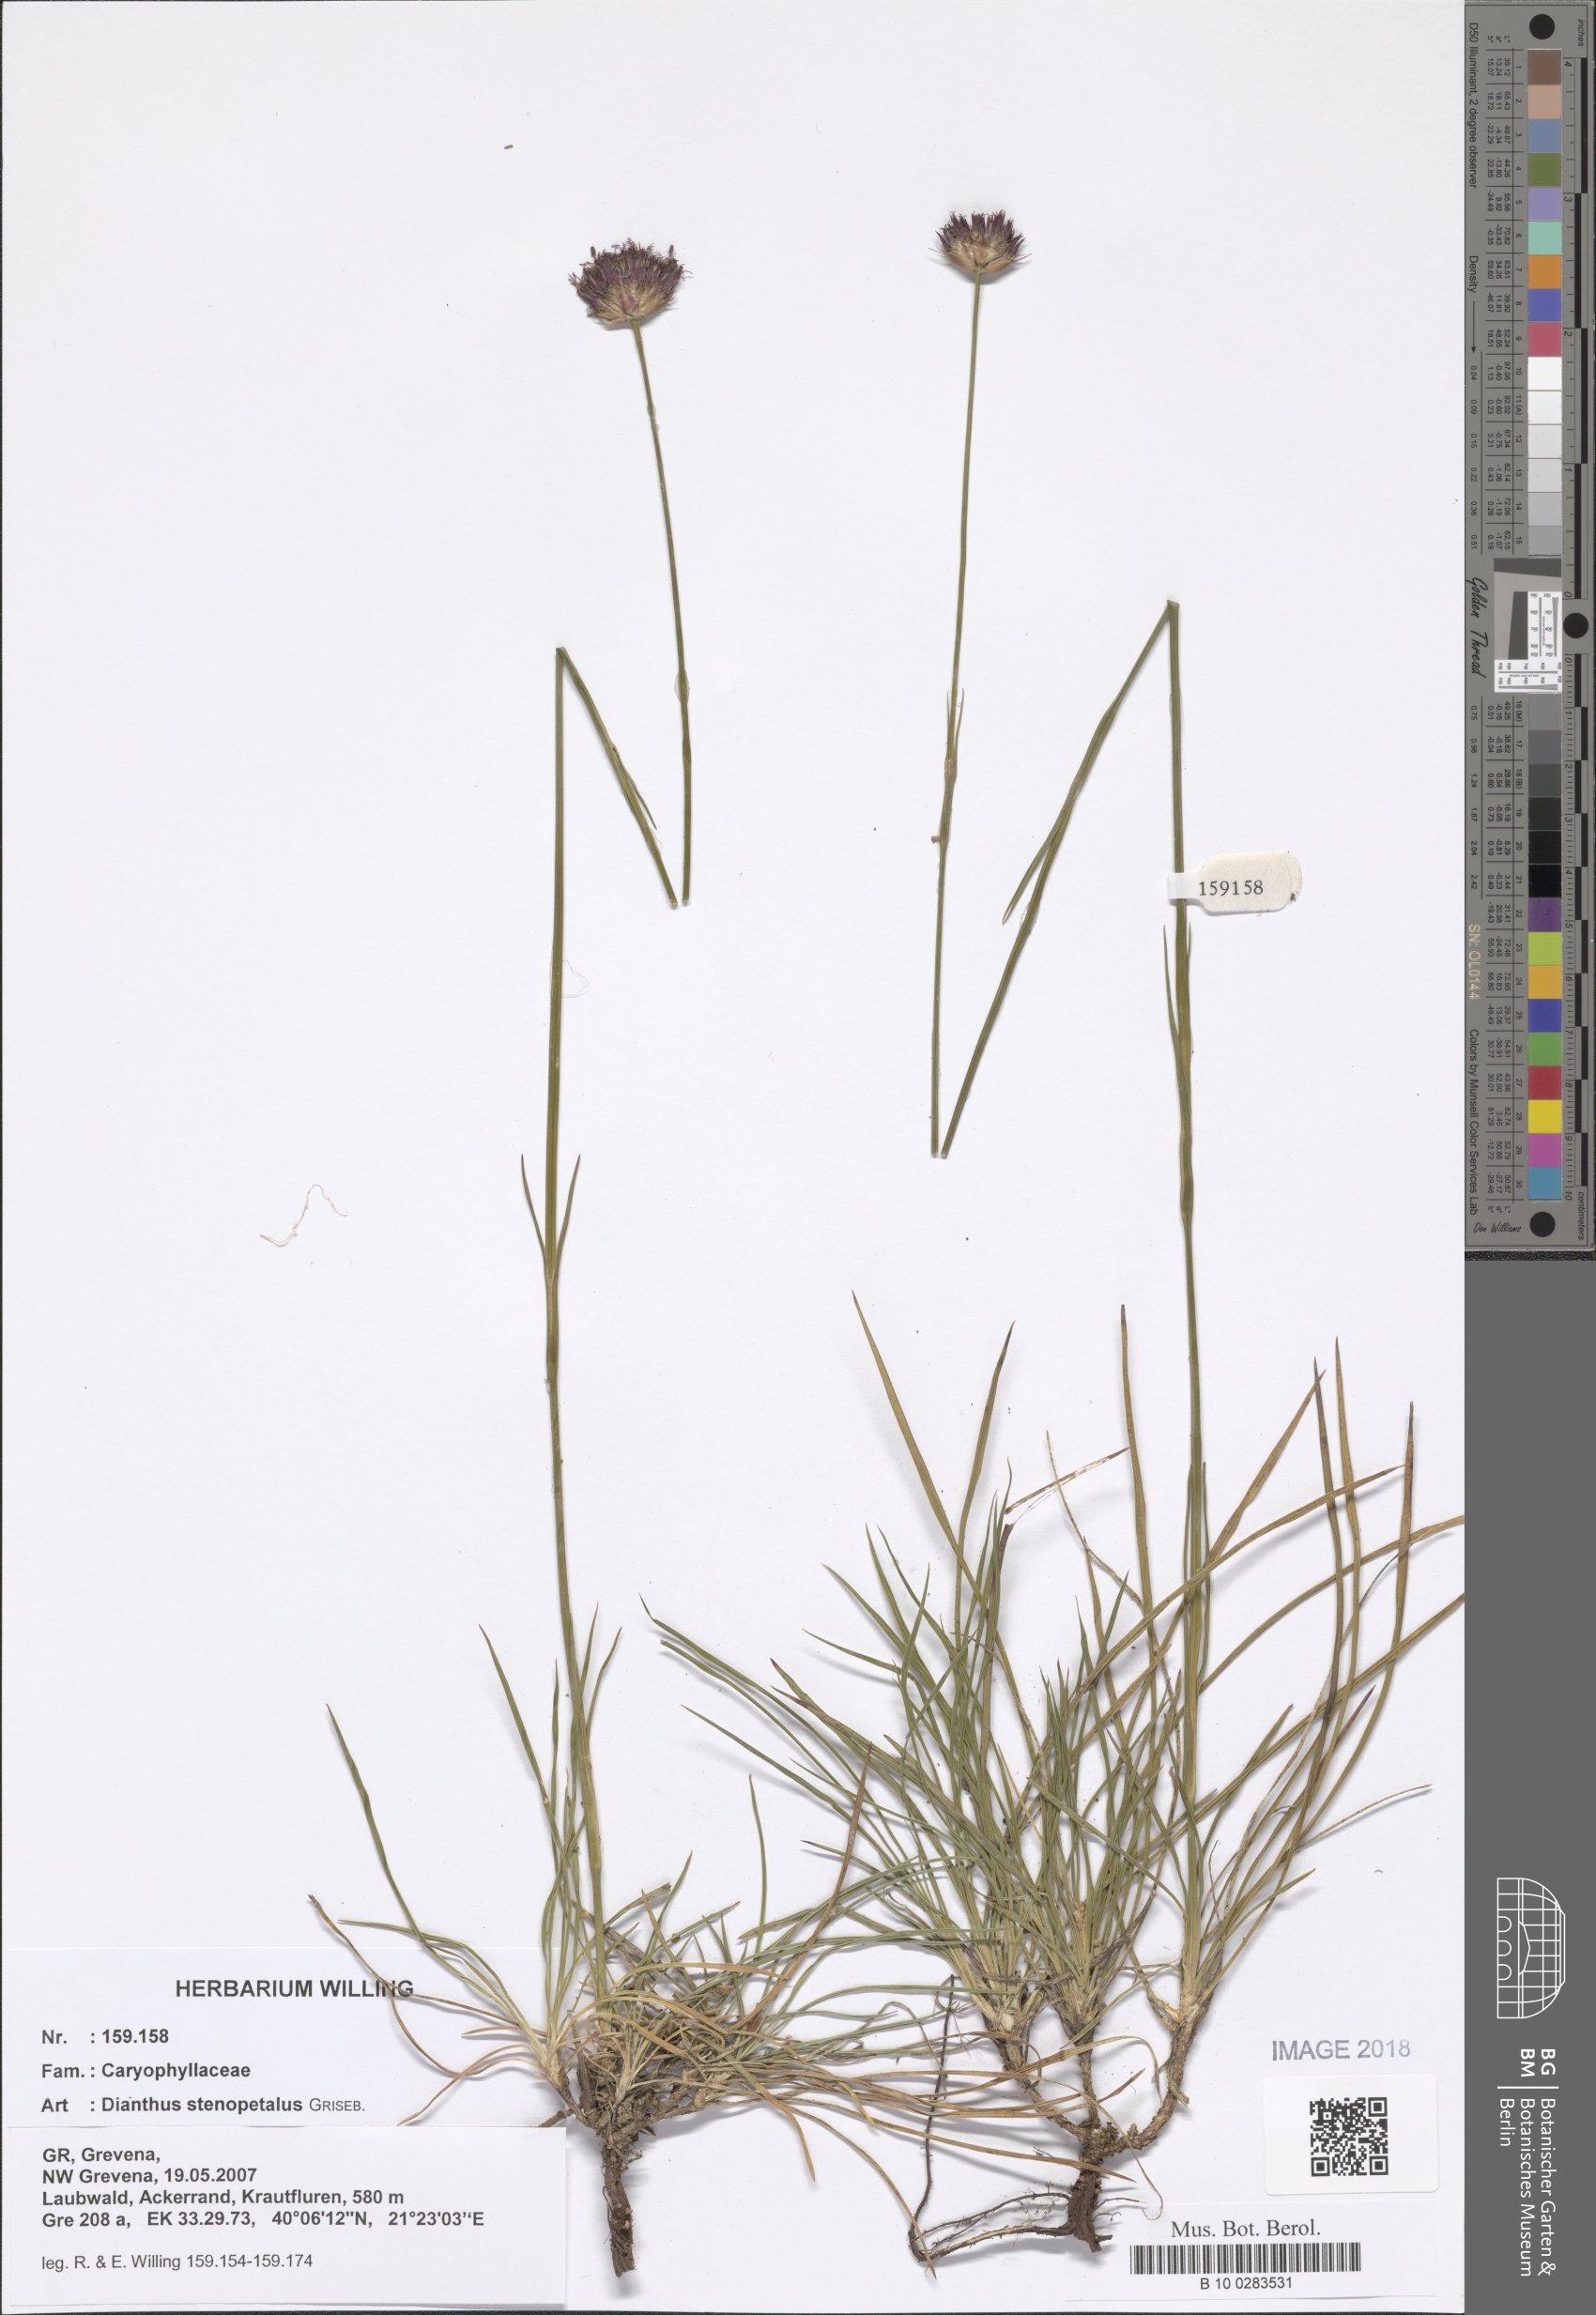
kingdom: Plantae
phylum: Tracheophyta
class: Magnoliopsida
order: Caryophyllales
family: Caryophyllaceae
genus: Dianthus
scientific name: Dianthus stenopetalus
